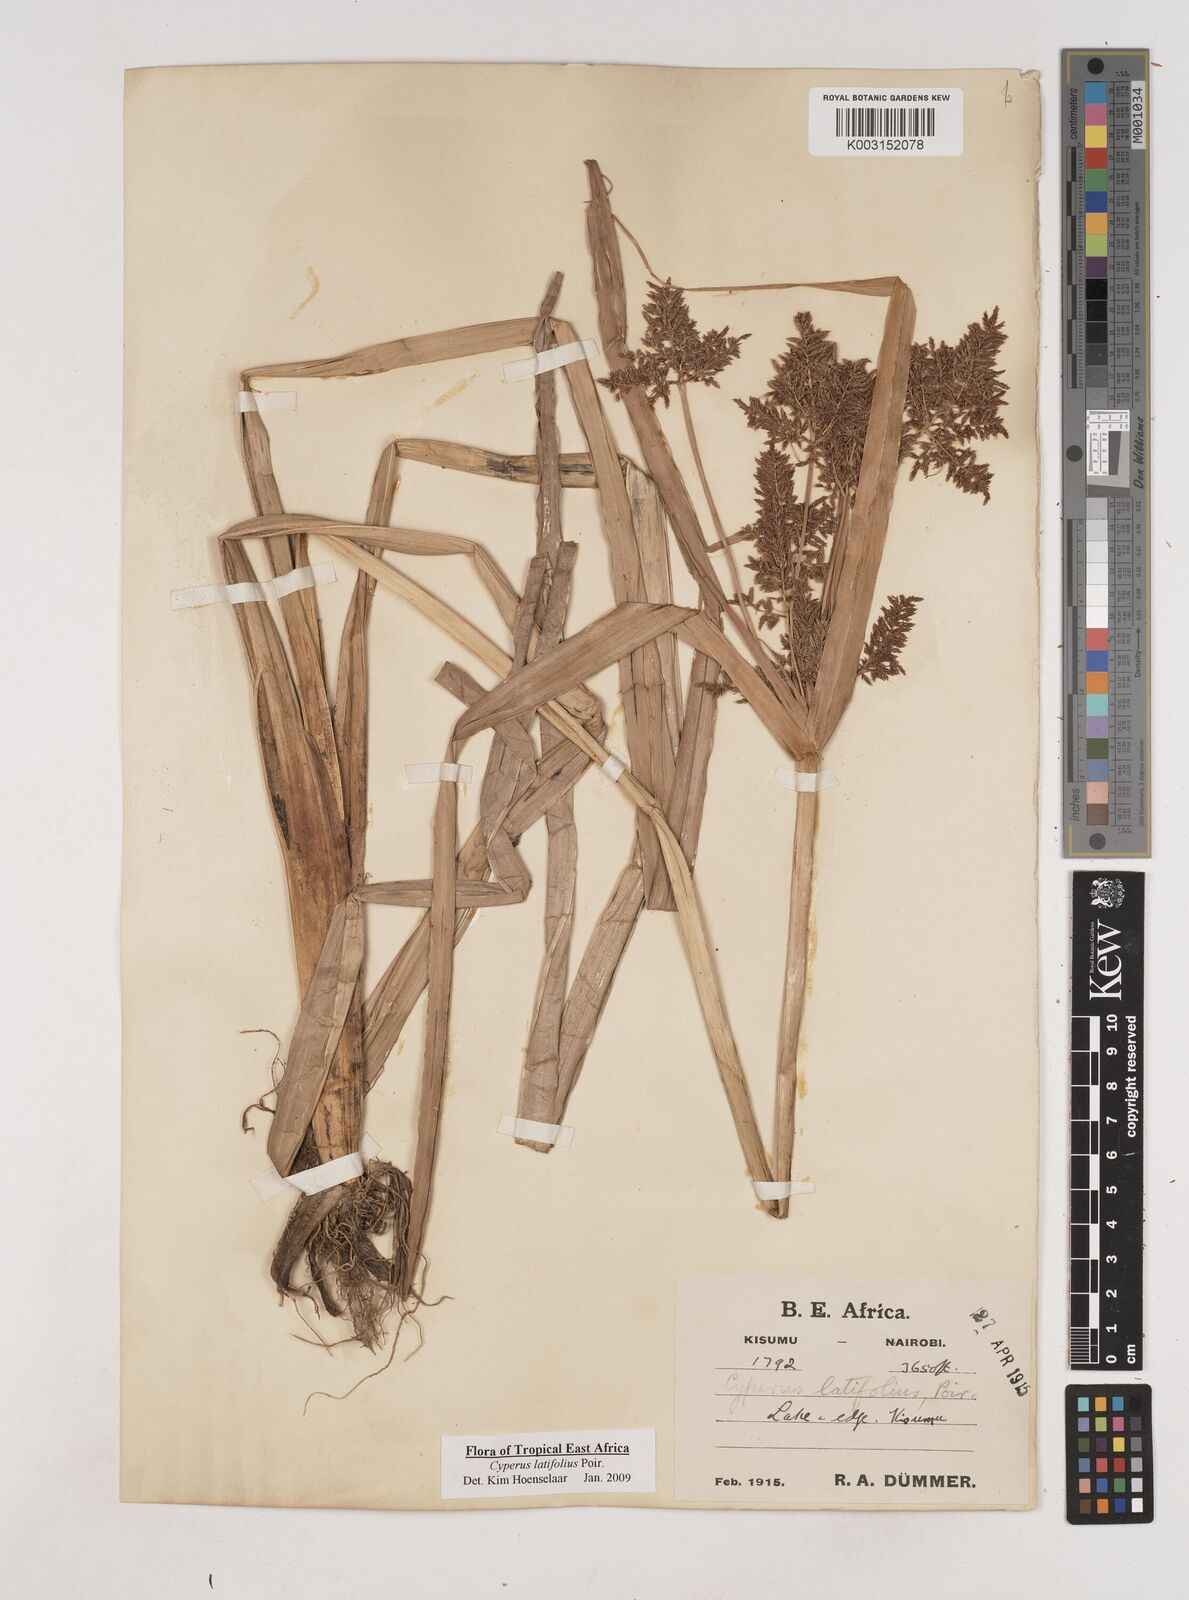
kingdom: Plantae
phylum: Tracheophyta
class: Liliopsida
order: Poales
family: Cyperaceae
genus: Cyperus
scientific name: Cyperus latifolius
